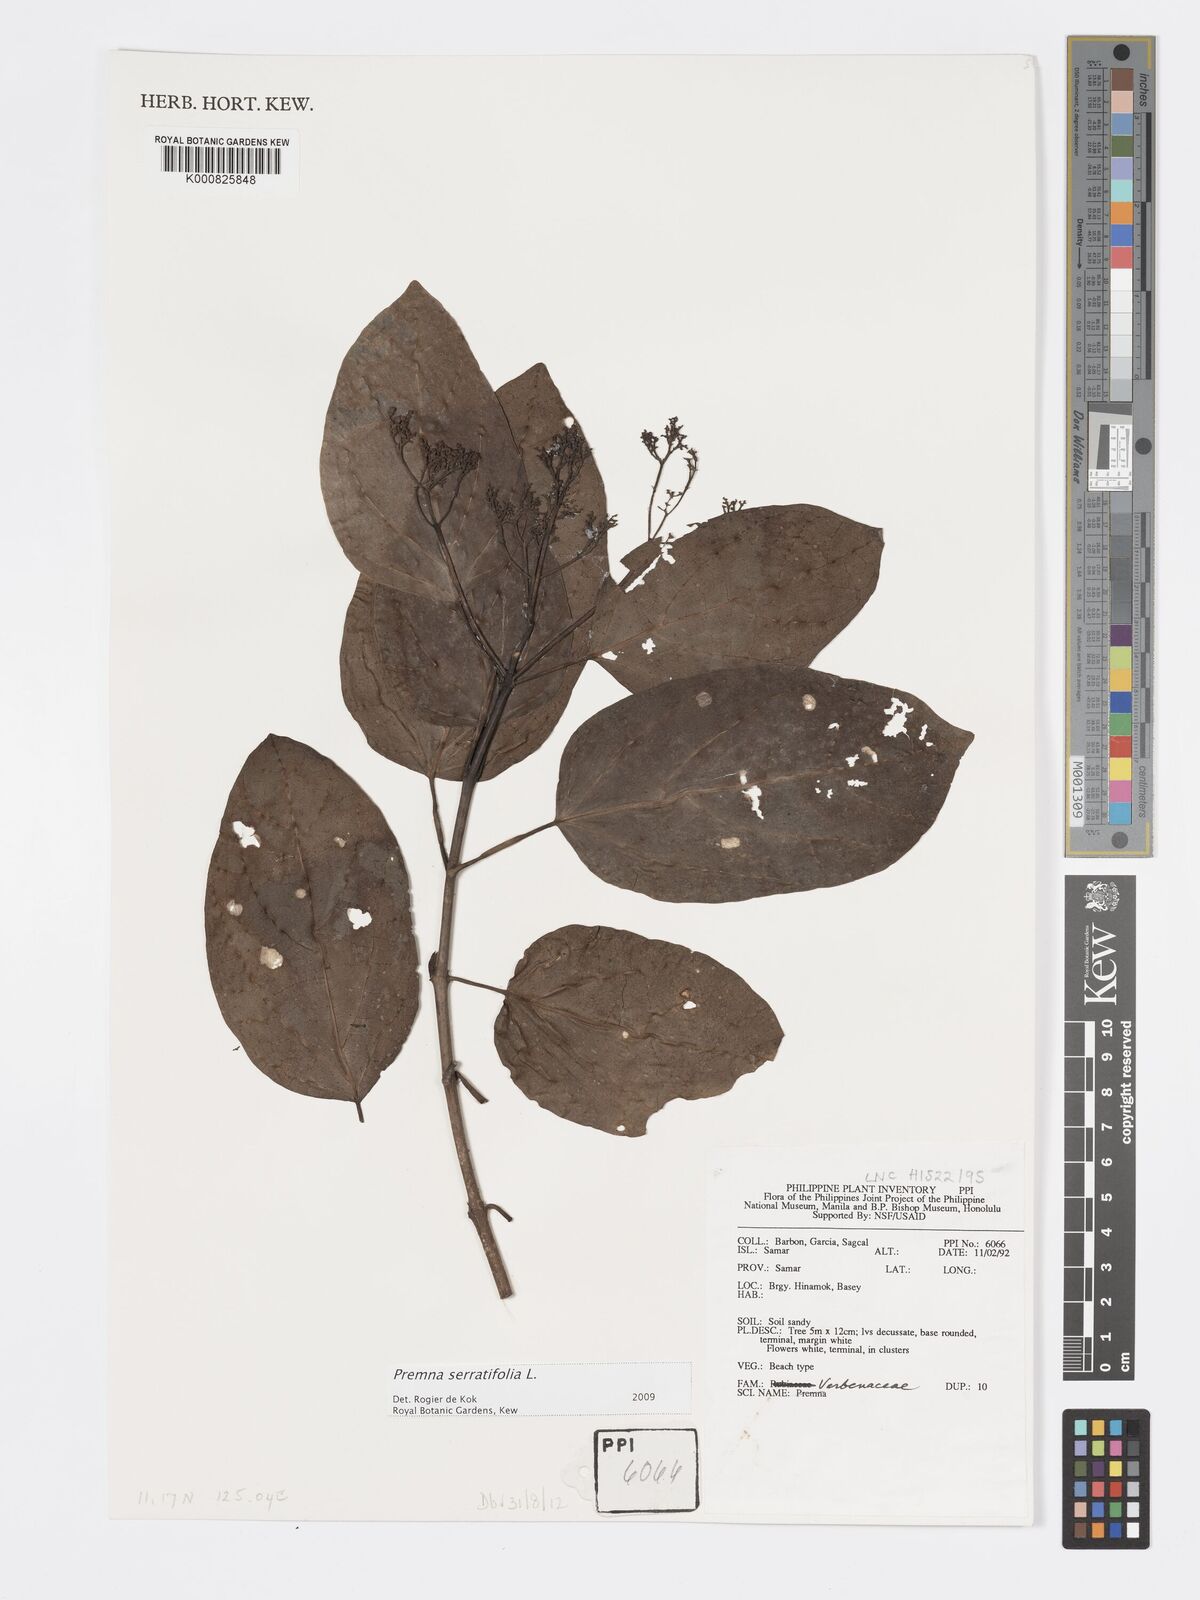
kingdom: Plantae
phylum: Tracheophyta
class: Magnoliopsida
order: Lamiales
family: Lamiaceae
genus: Premna
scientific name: Premna serratifolia
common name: Bastard guelder
